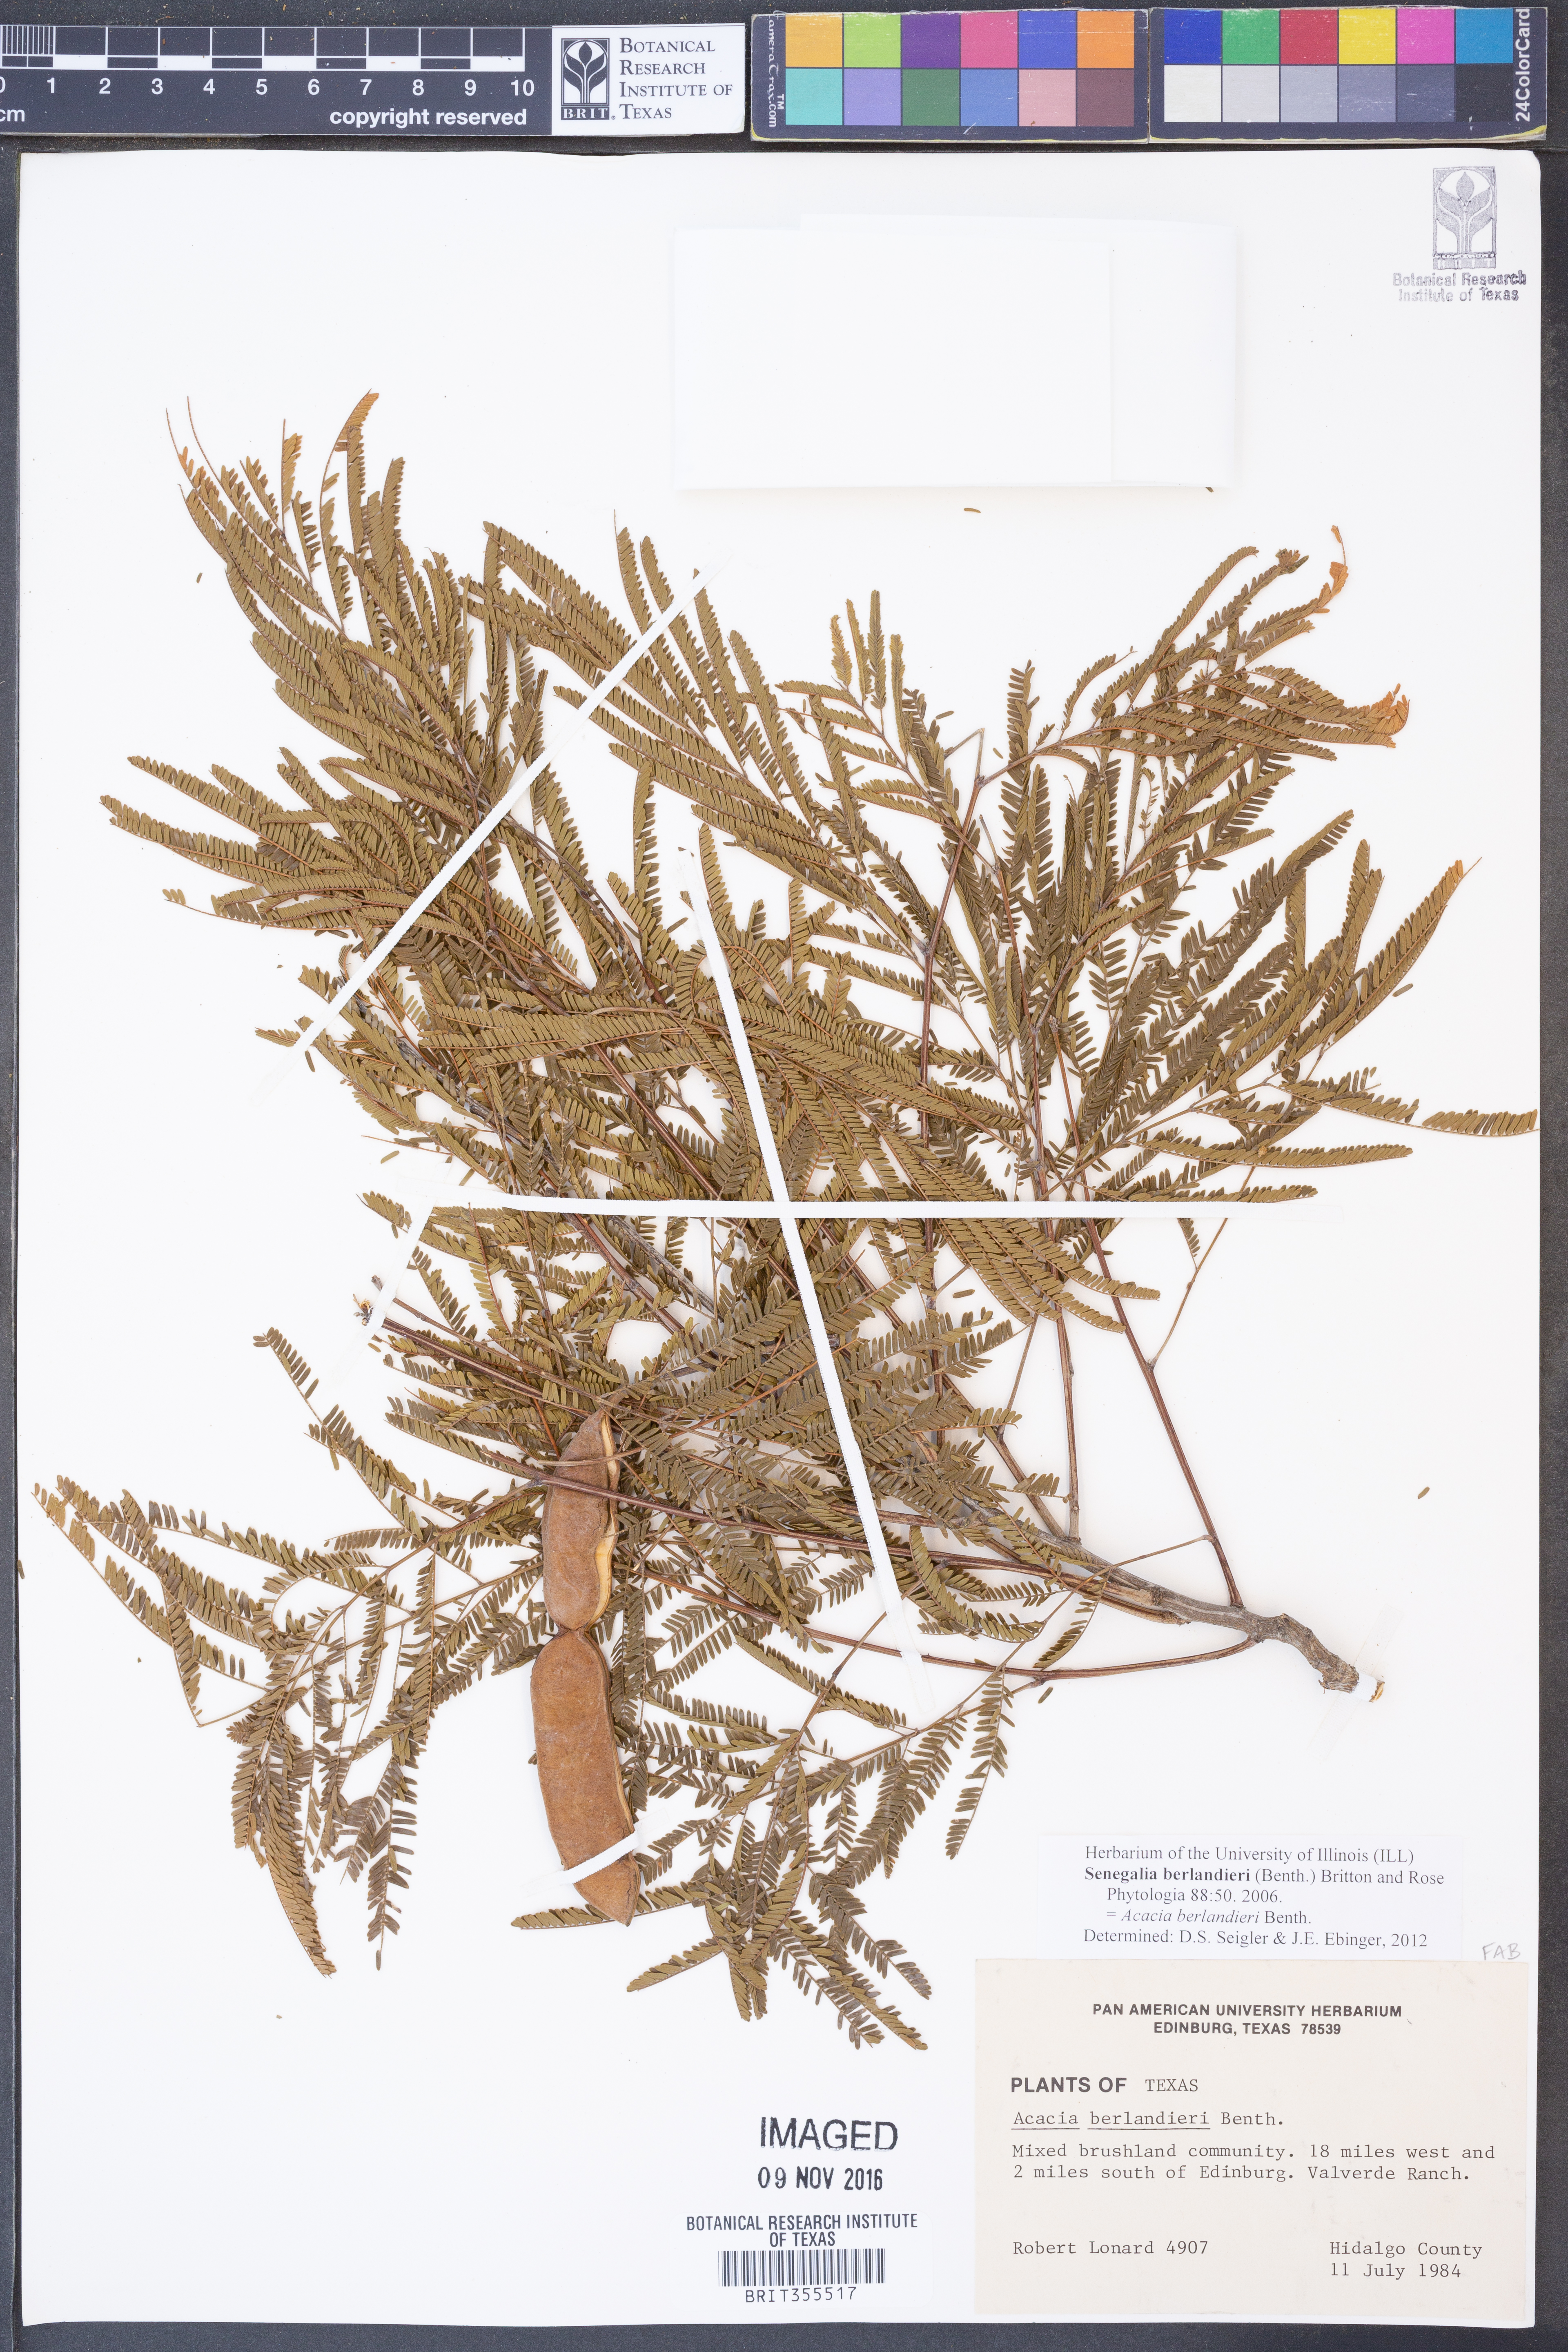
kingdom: Plantae
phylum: Tracheophyta
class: Magnoliopsida
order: Fabales
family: Fabaceae
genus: Senegalia
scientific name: Senegalia berlandieri
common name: Berlandier acacia
